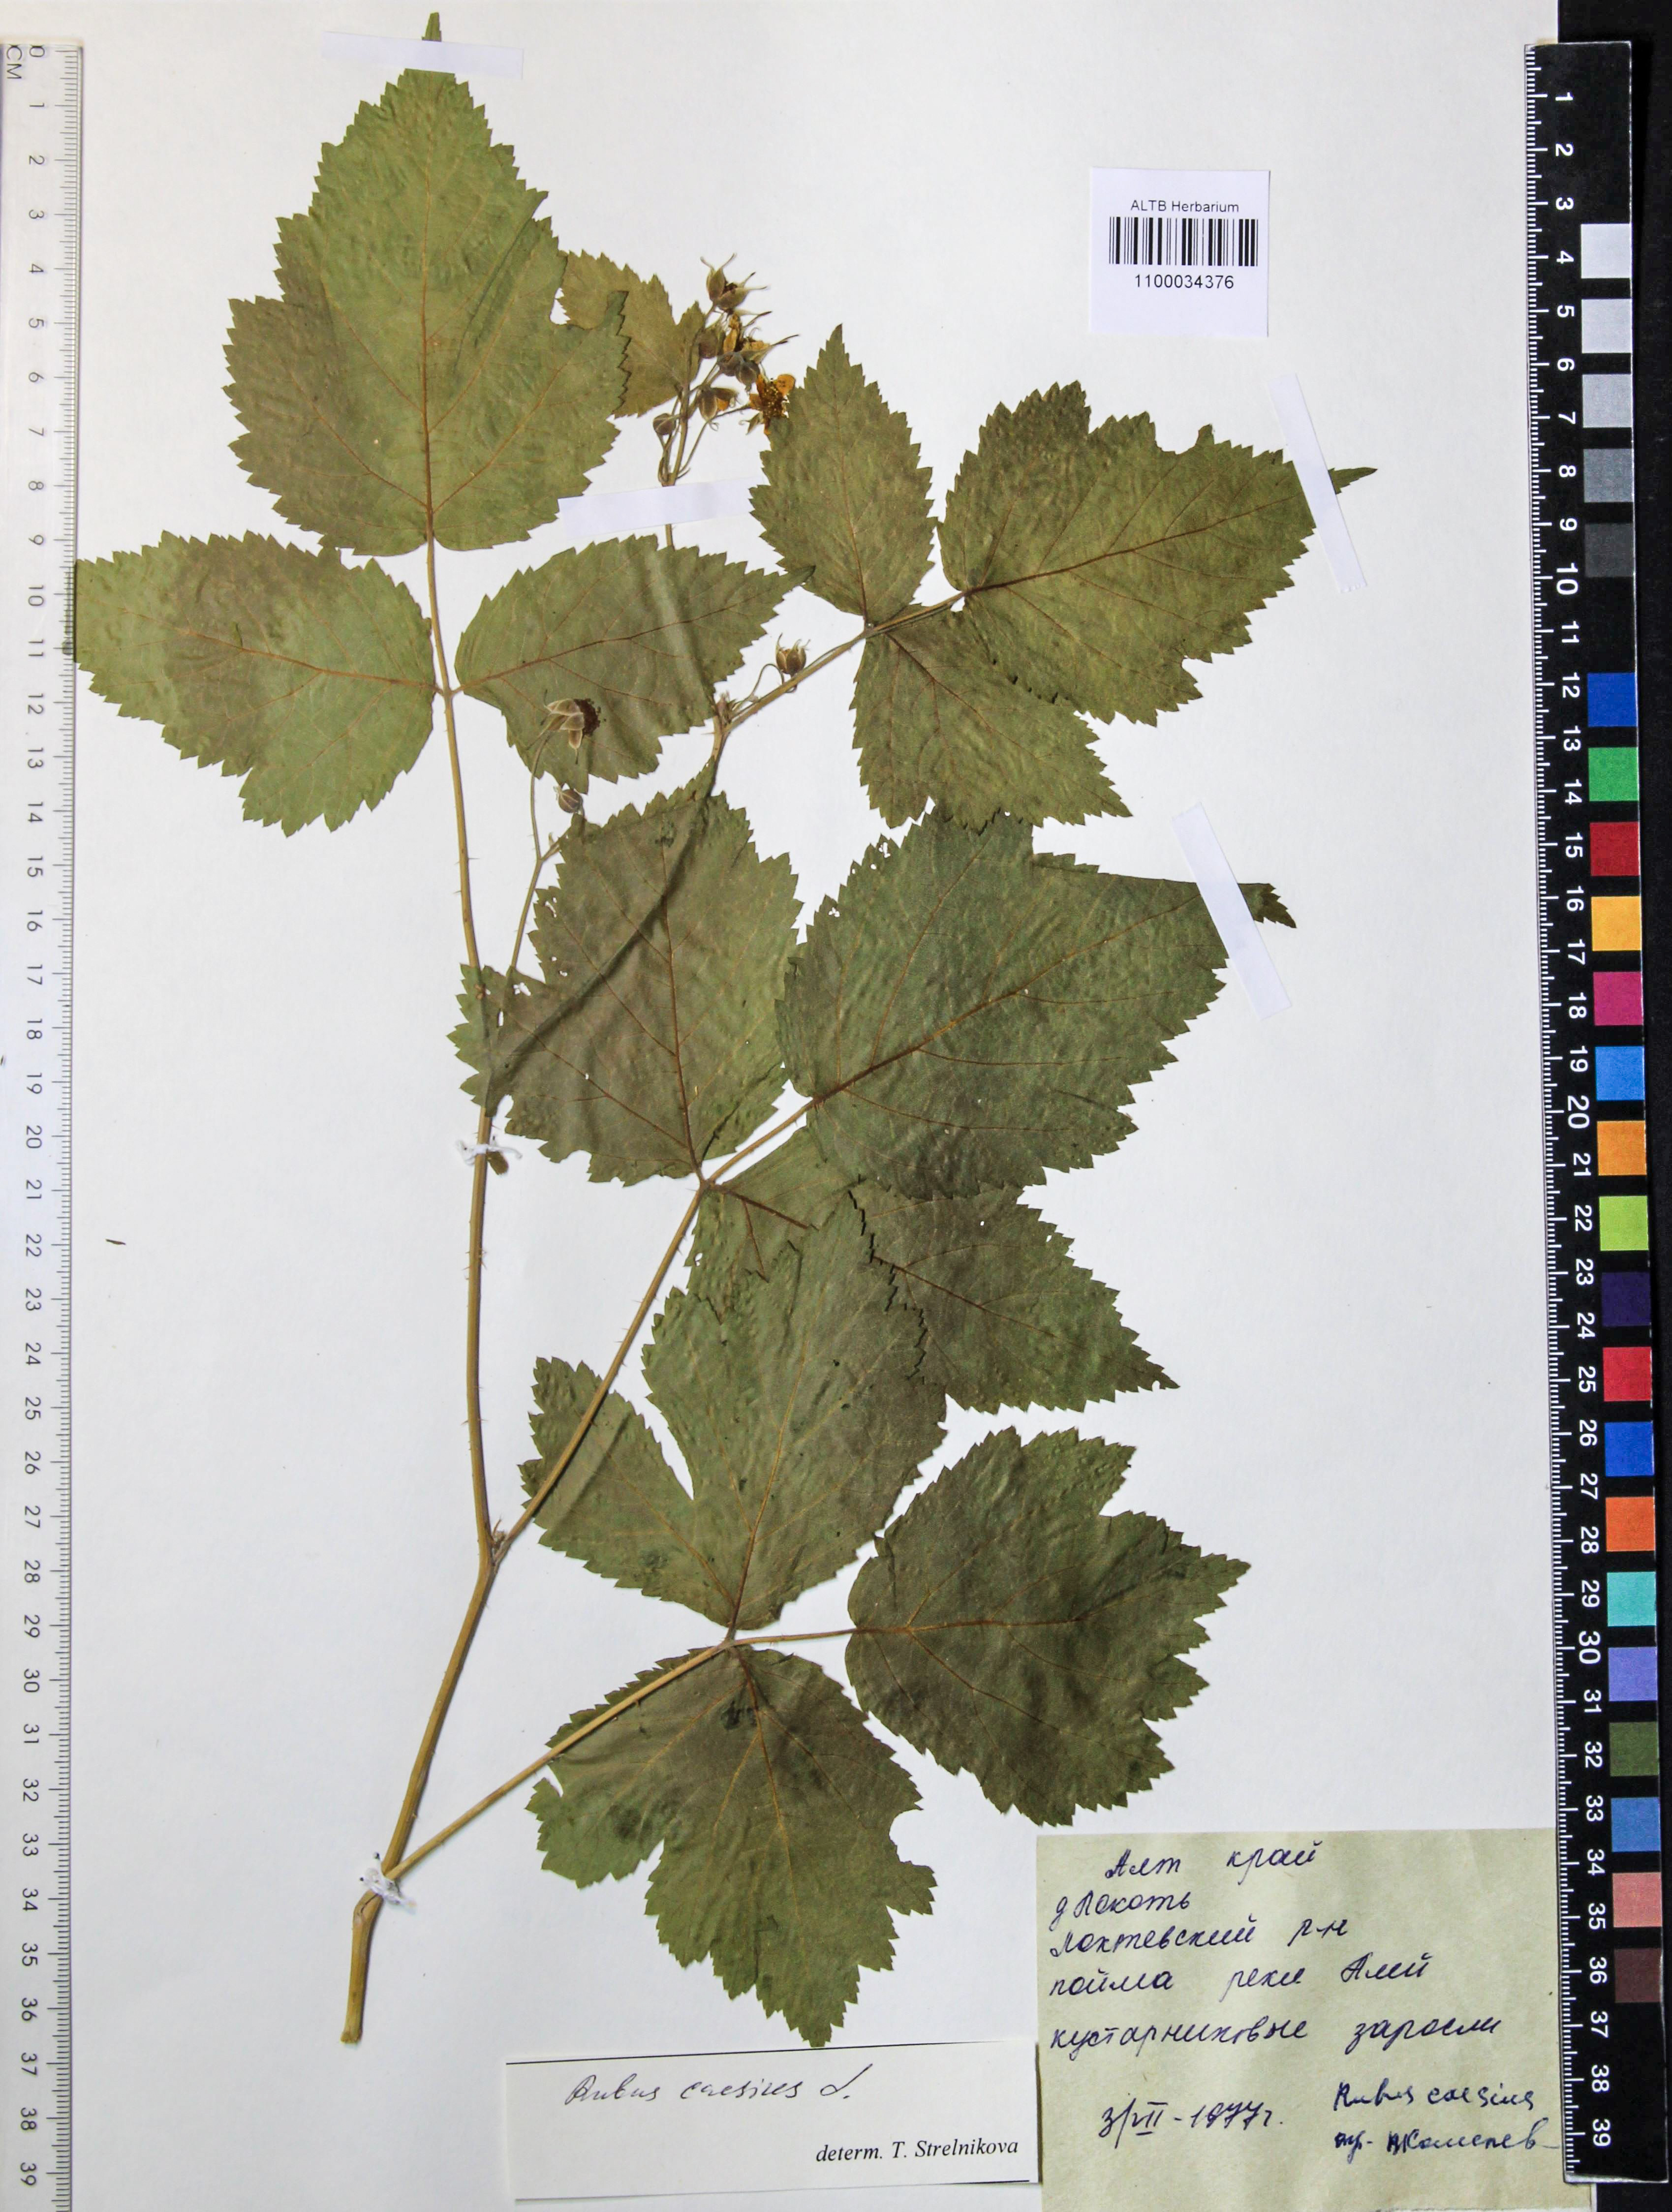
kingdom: Plantae
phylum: Tracheophyta
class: Magnoliopsida
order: Rosales
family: Rosaceae
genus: Rubus
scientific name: Rubus caesius
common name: Dewberry
